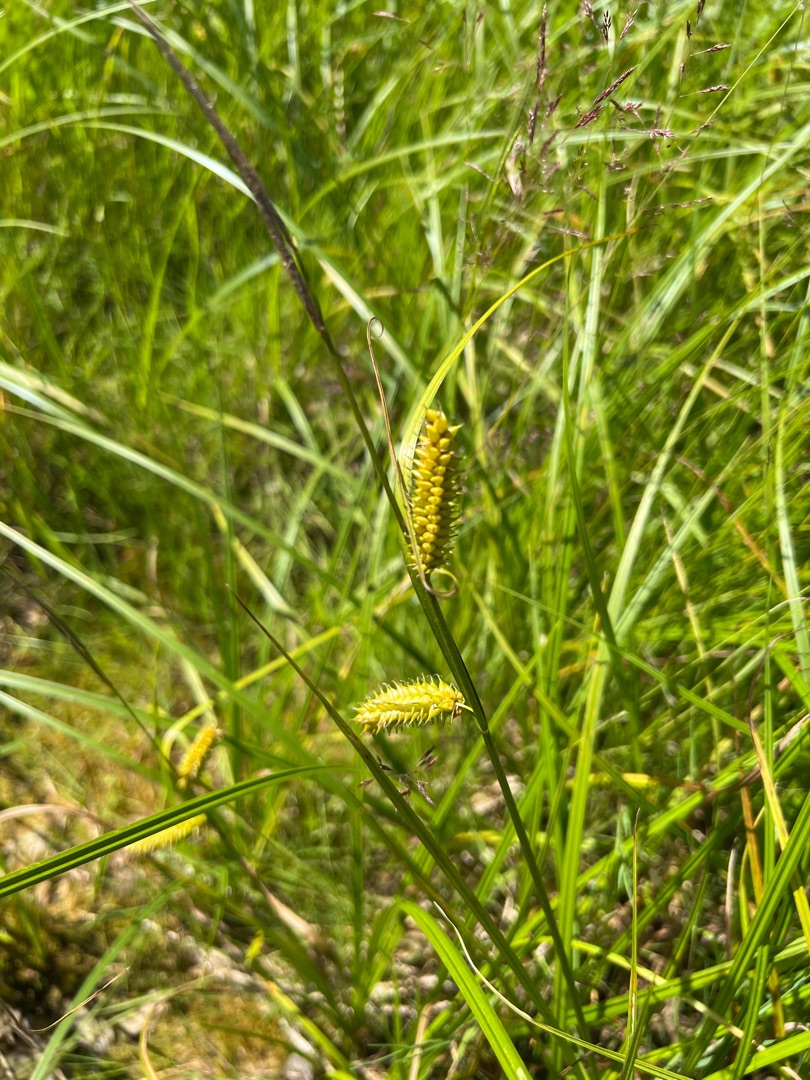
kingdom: Plantae
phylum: Tracheophyta
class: Liliopsida
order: Poales
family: Cyperaceae
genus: Carex
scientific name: Carex vesicaria
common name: Blære-star
